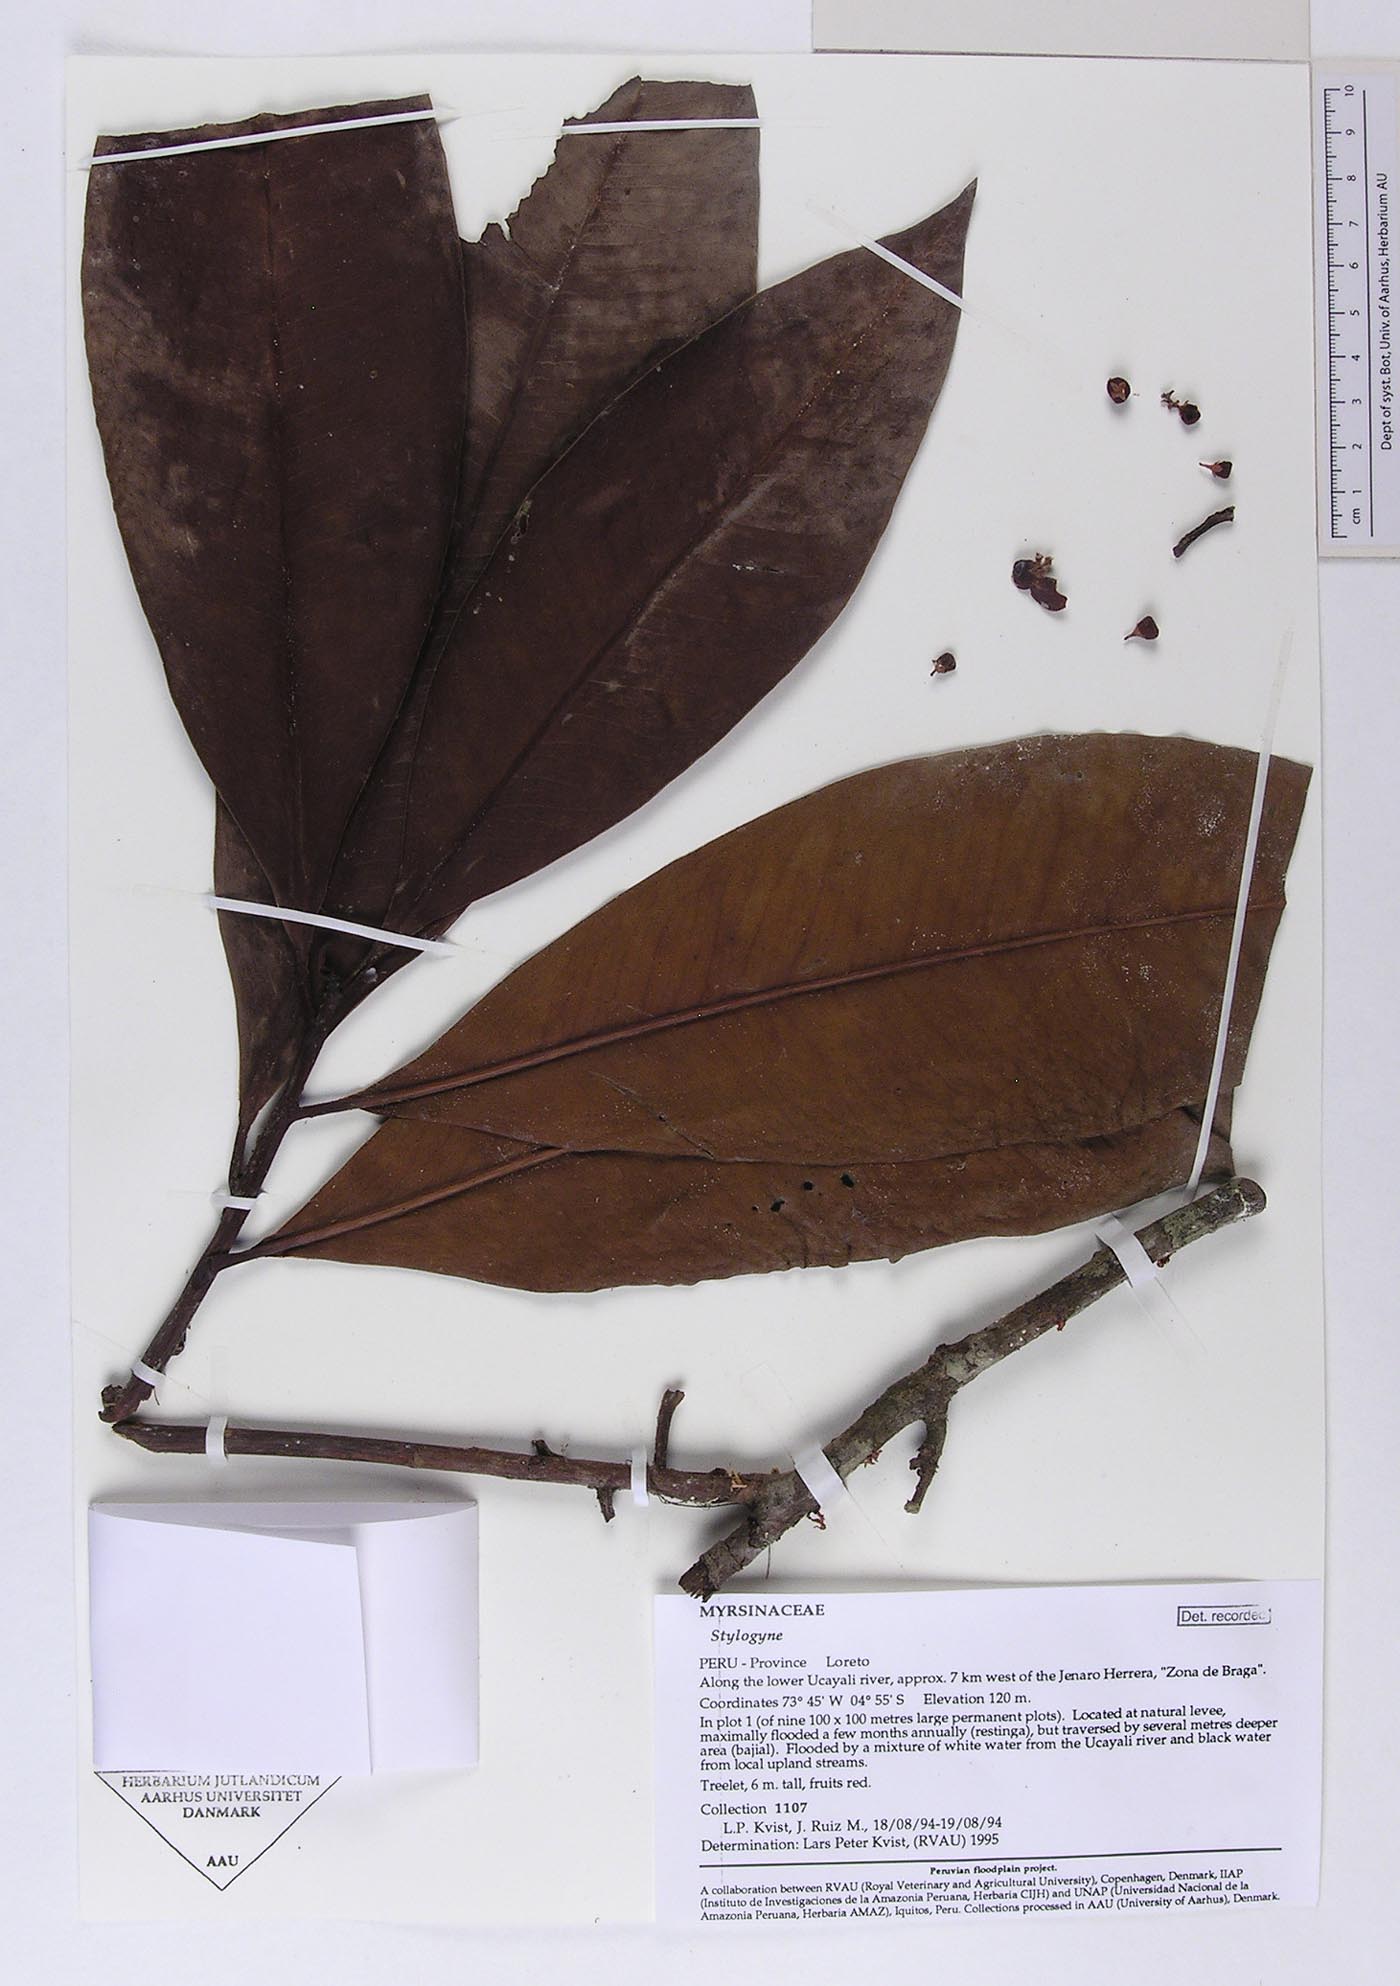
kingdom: Plantae
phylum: Tracheophyta
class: Magnoliopsida
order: Ericales
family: Primulaceae
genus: Stylogyne
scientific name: Stylogyne
